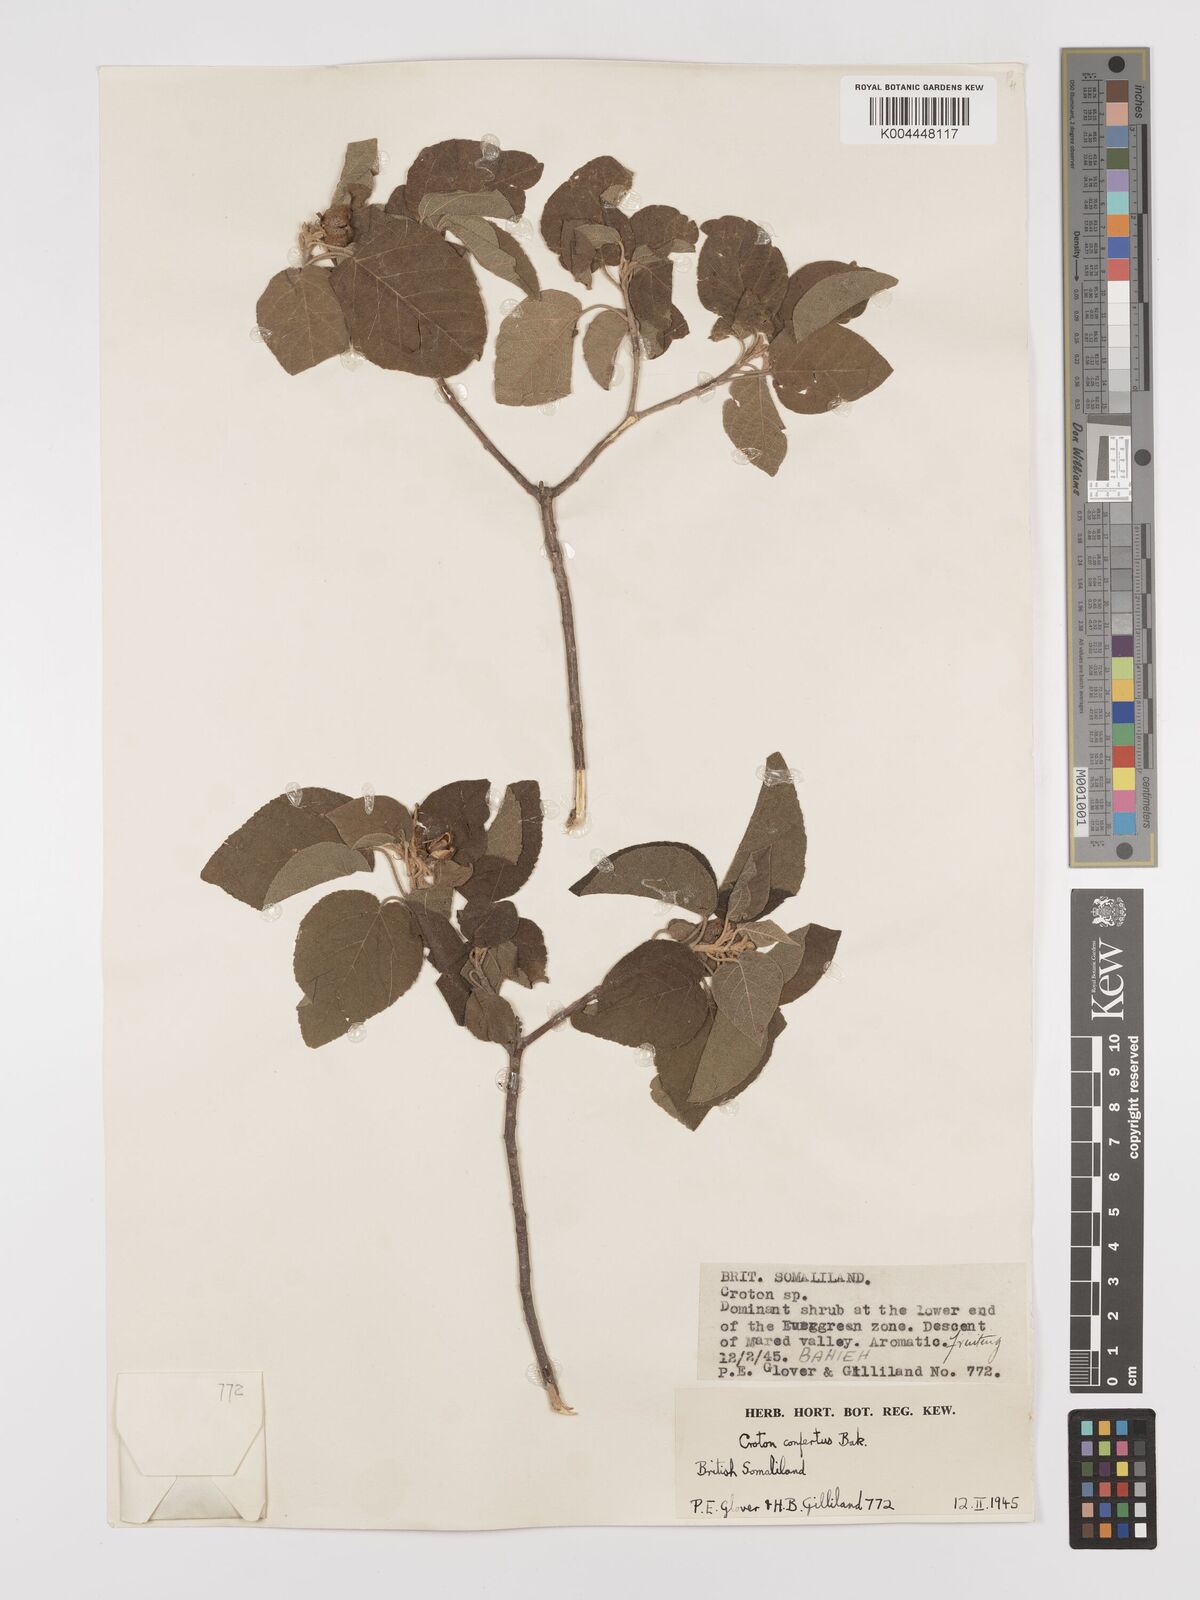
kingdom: Plantae
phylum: Tracheophyta
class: Magnoliopsida
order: Malpighiales
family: Euphorbiaceae
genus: Croton
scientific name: Croton confertus
